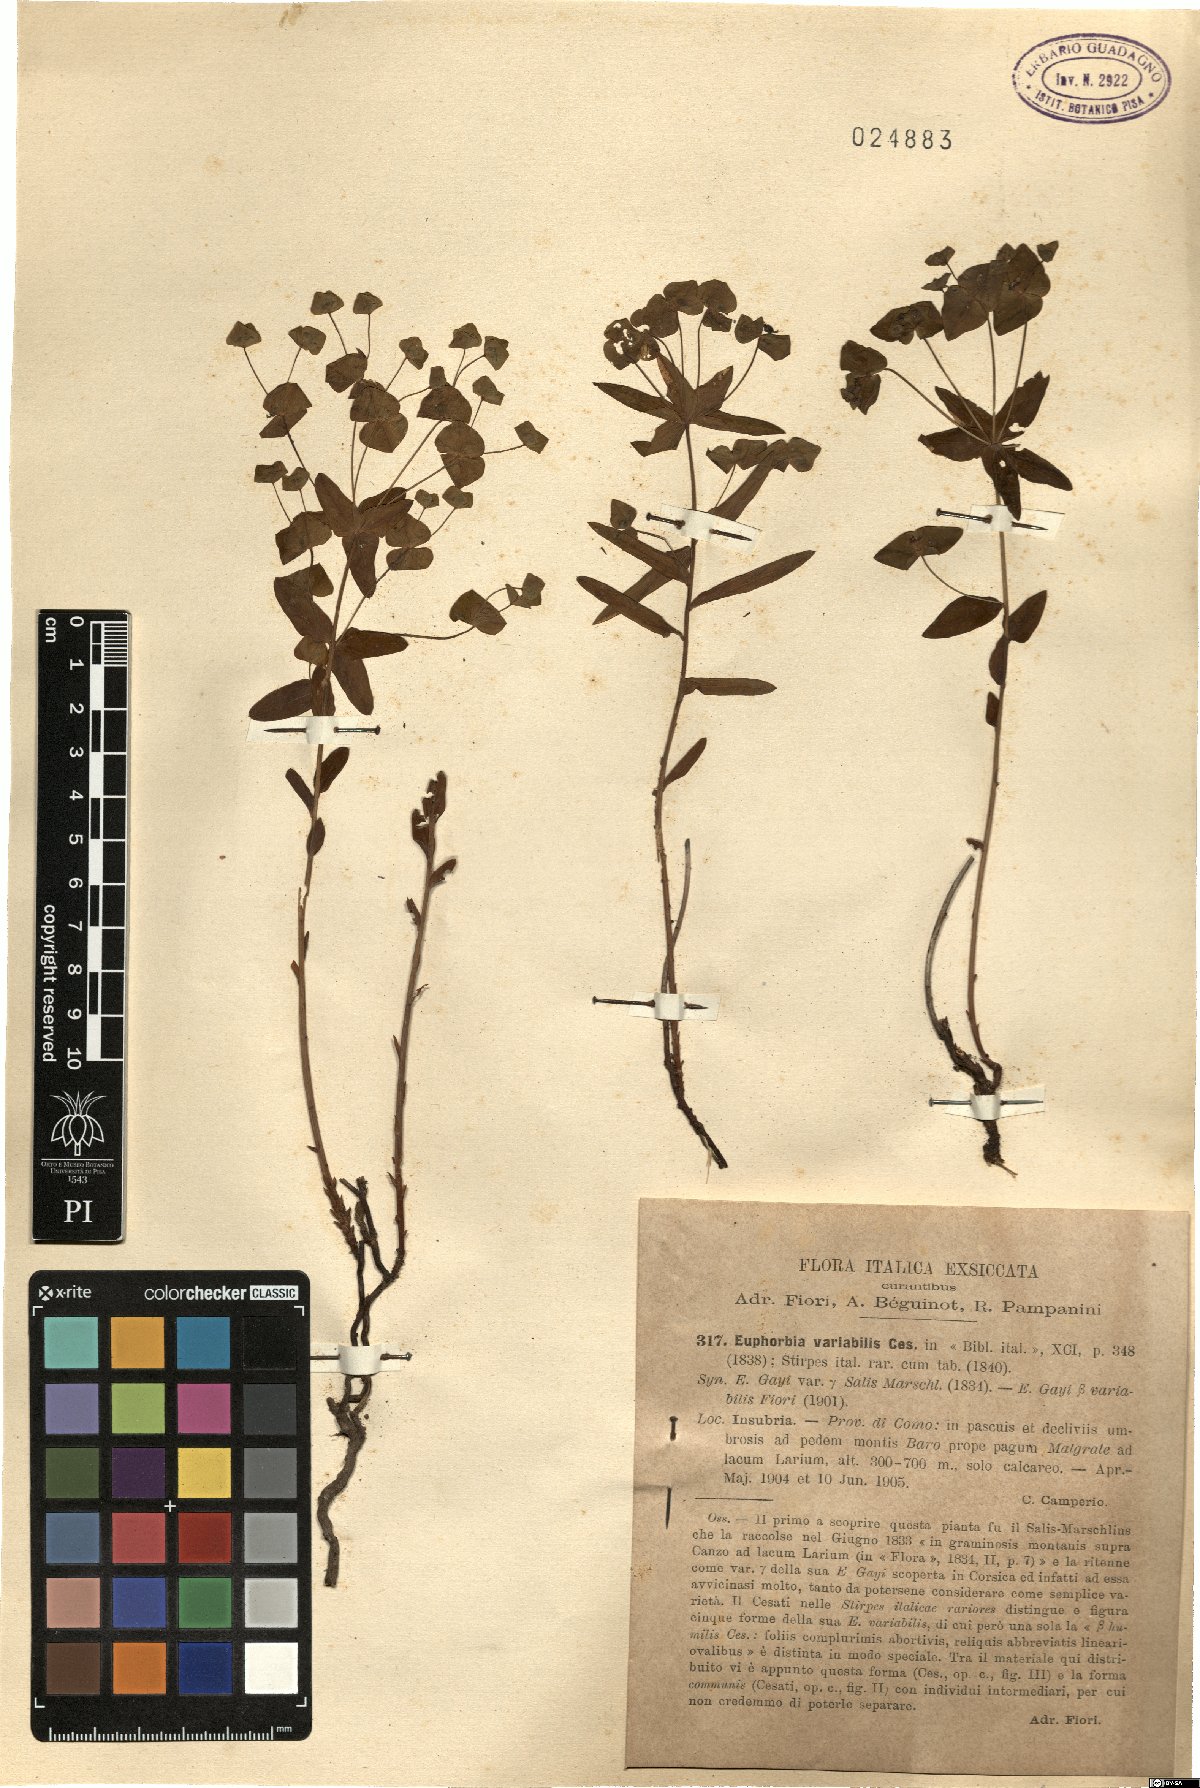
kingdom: Plantae
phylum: Tracheophyta
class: Magnoliopsida
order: Malpighiales
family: Euphorbiaceae
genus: Euphorbia
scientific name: Euphorbia variabilis
